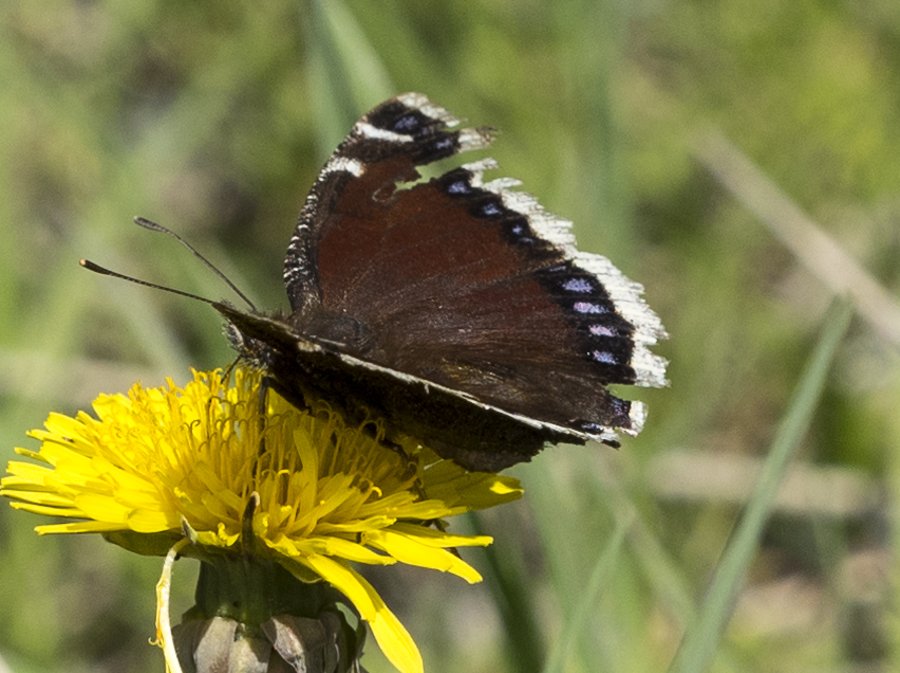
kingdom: Animalia
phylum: Arthropoda
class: Insecta
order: Lepidoptera
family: Nymphalidae
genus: Nymphalis
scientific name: Nymphalis antiopa
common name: Mourning Cloak
